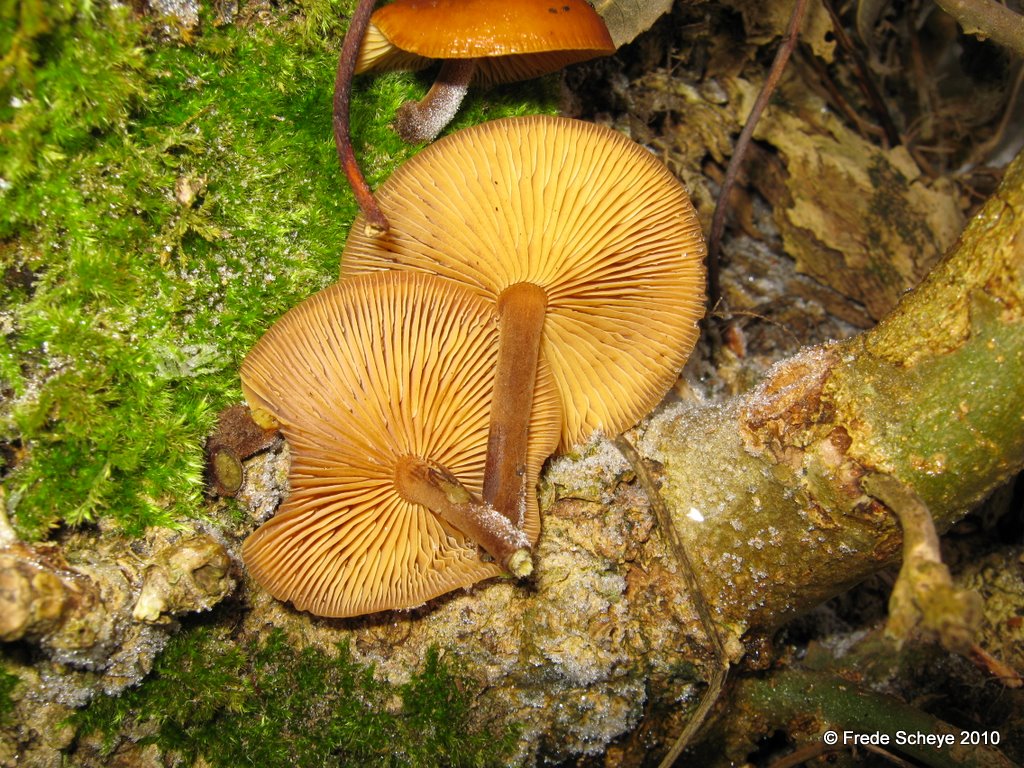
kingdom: Fungi
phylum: Basidiomycota
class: Agaricomycetes
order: Agaricales
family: Physalacriaceae
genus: Flammulina
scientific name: Flammulina velutipes
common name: gul fløjlsfod
